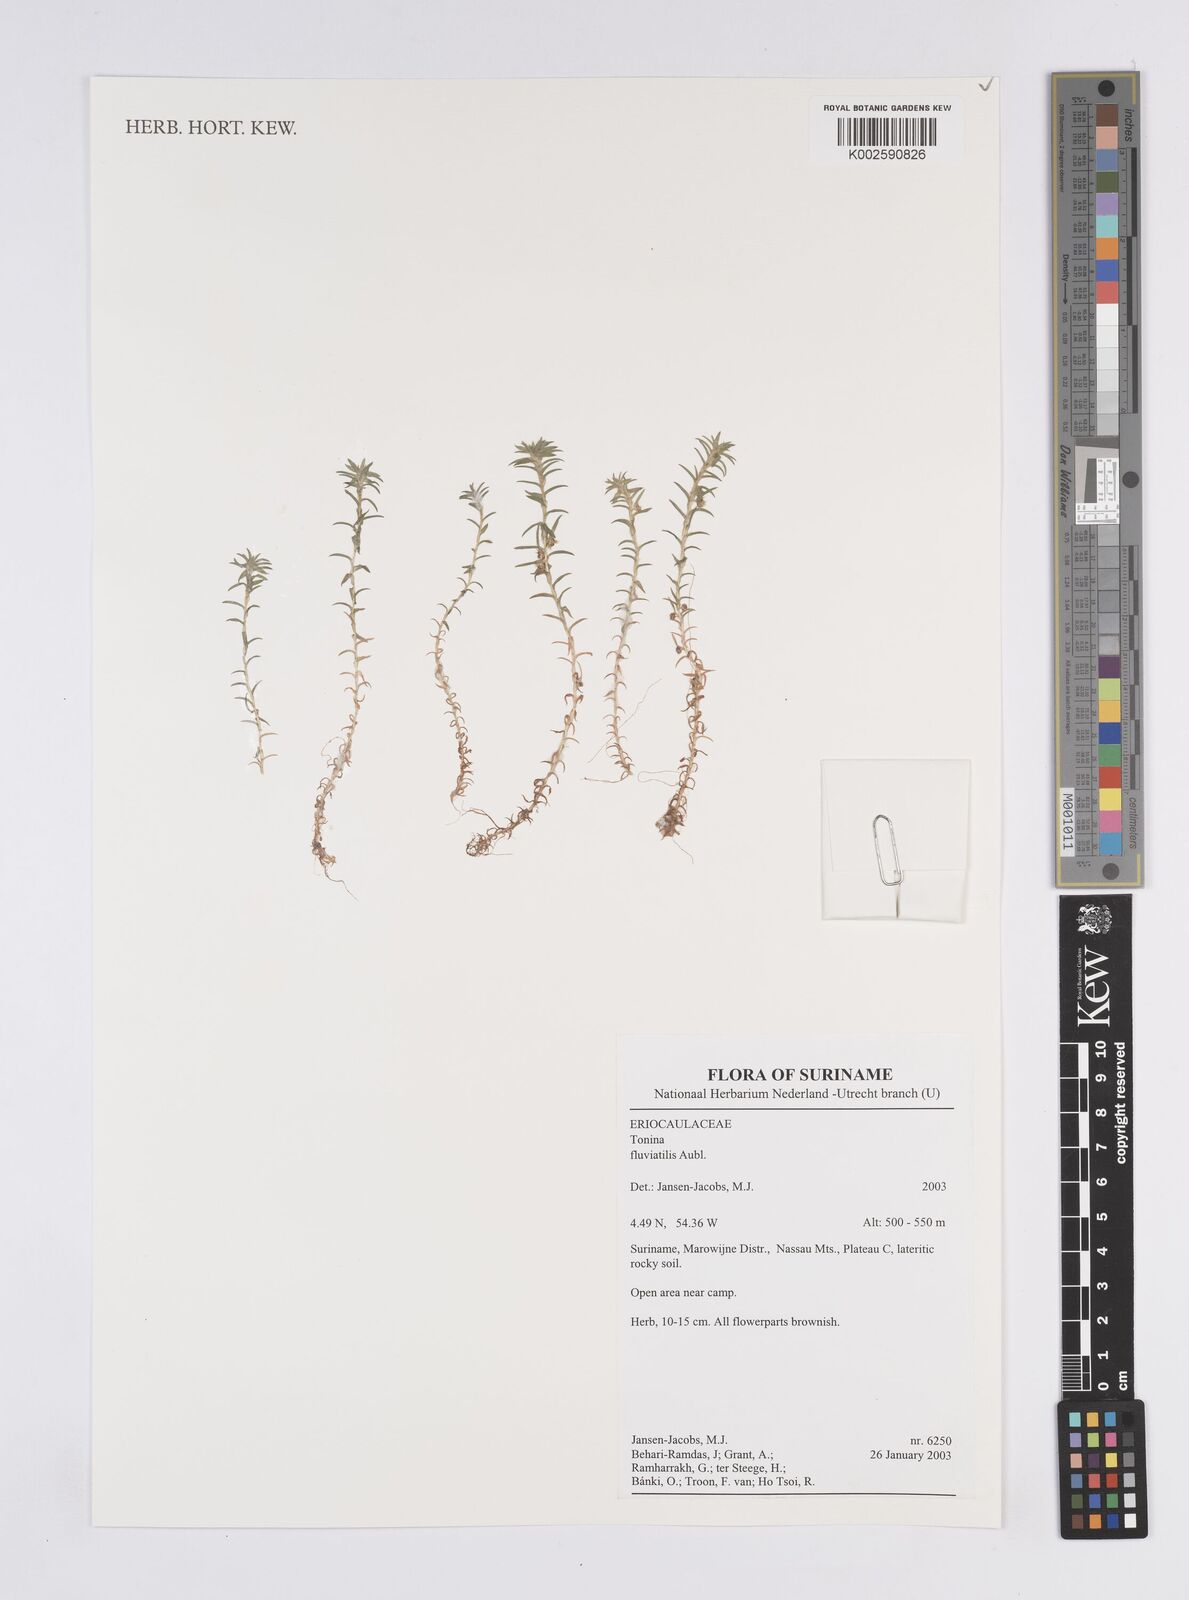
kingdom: Plantae
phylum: Tracheophyta
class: Liliopsida
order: Poales
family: Eriocaulaceae
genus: Paepalanthus
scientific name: Paepalanthus fluviatilis
